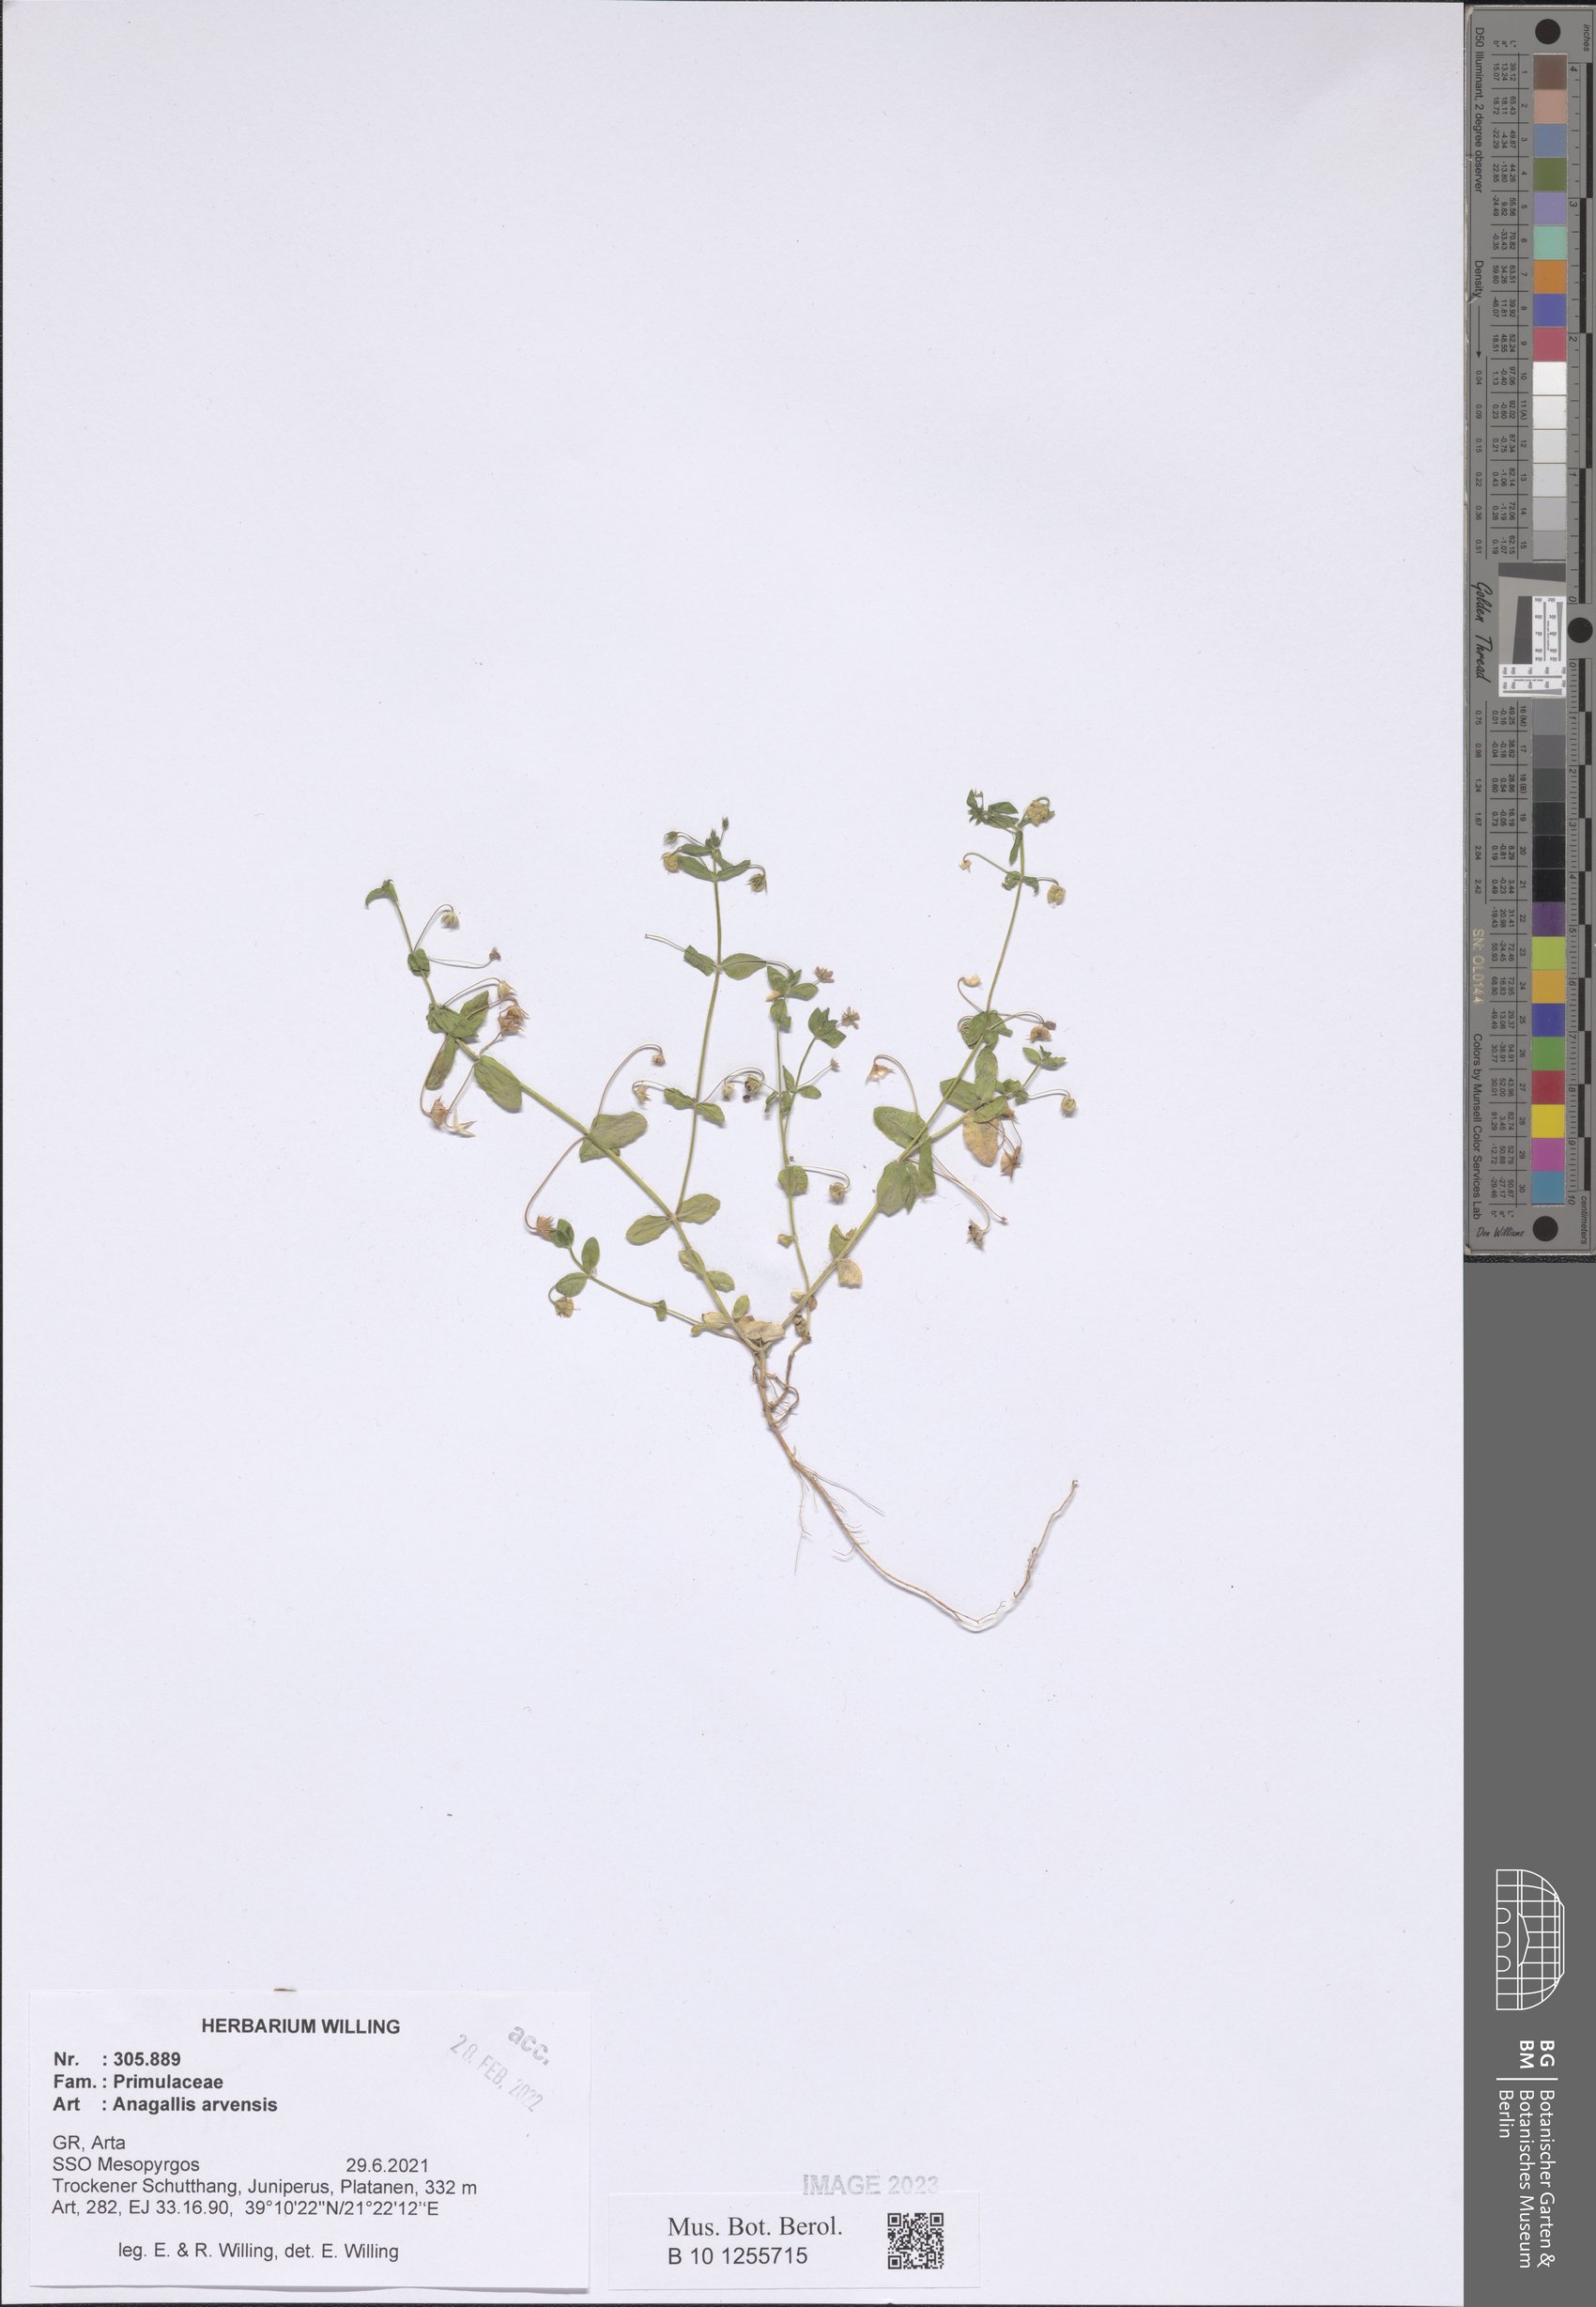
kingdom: Plantae
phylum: Tracheophyta
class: Magnoliopsida
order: Ericales
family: Primulaceae
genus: Lysimachia
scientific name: Lysimachia arvensis
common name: Scarlet pimpernel
